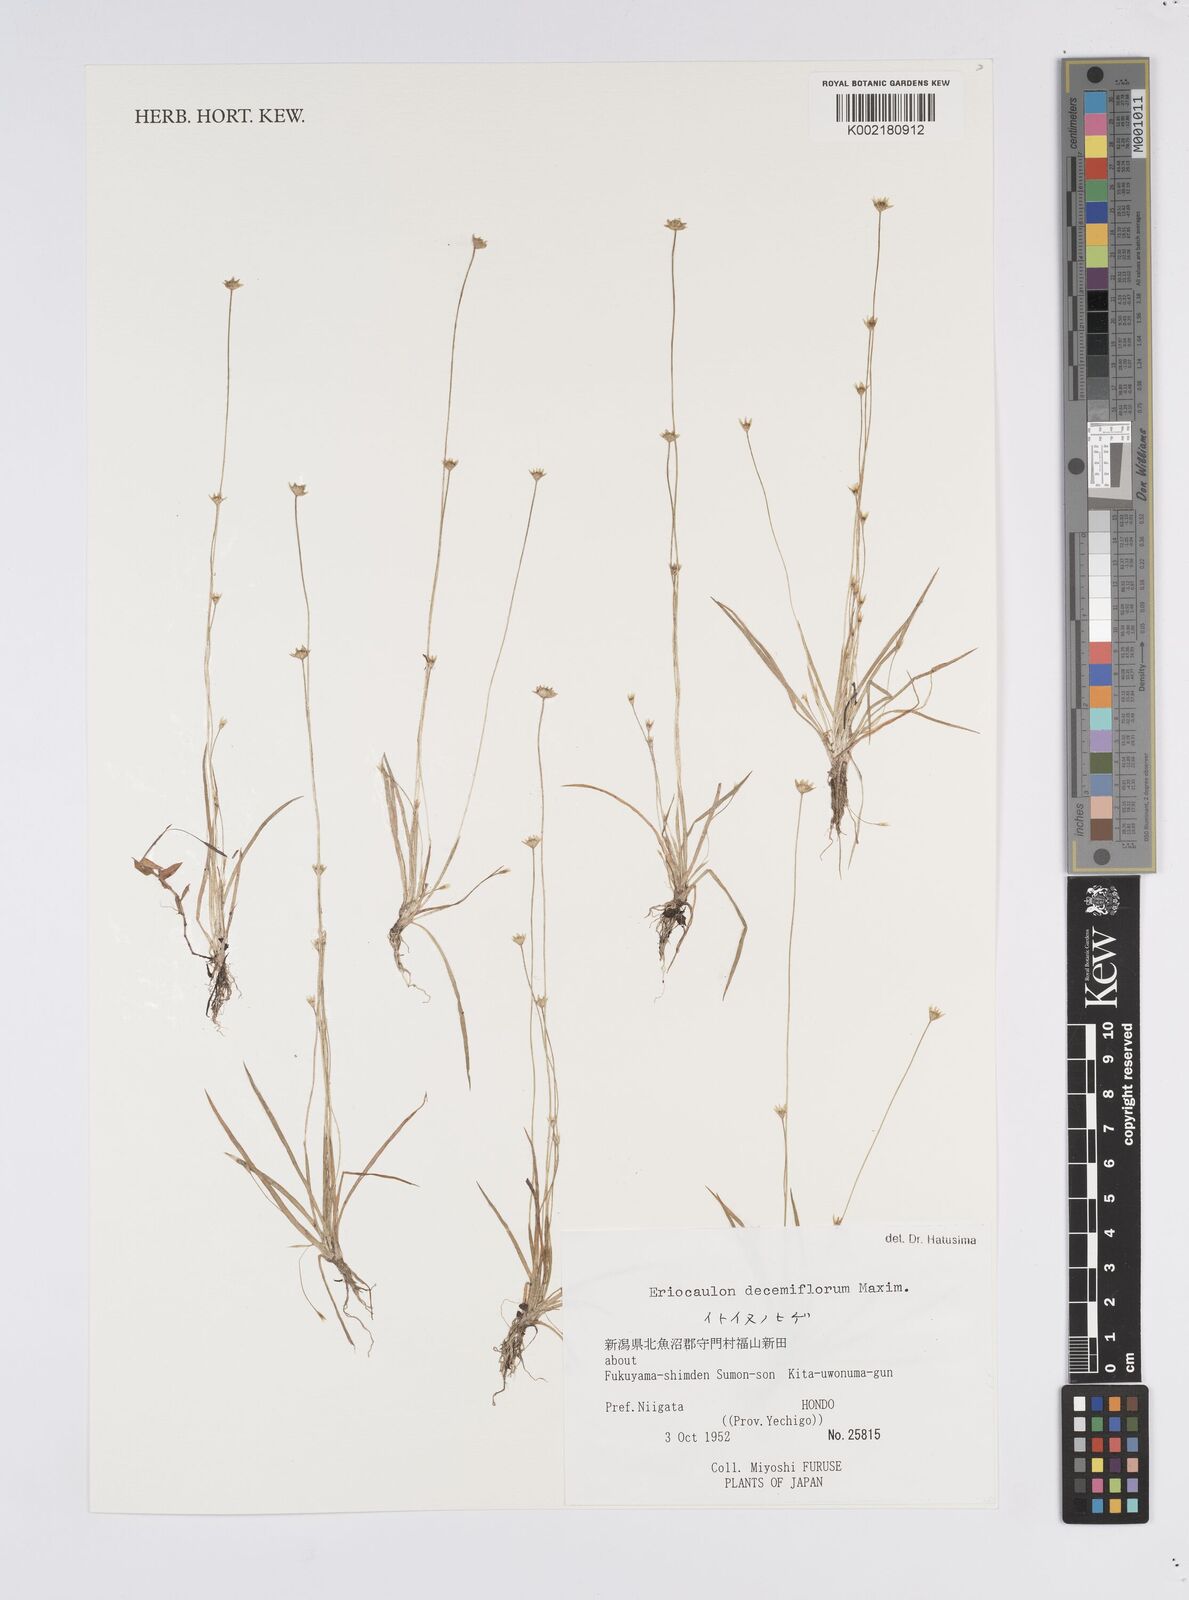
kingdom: Plantae
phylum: Tracheophyta
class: Liliopsida
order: Poales
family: Eriocaulaceae
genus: Eriocaulon
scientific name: Eriocaulon decemflorum
